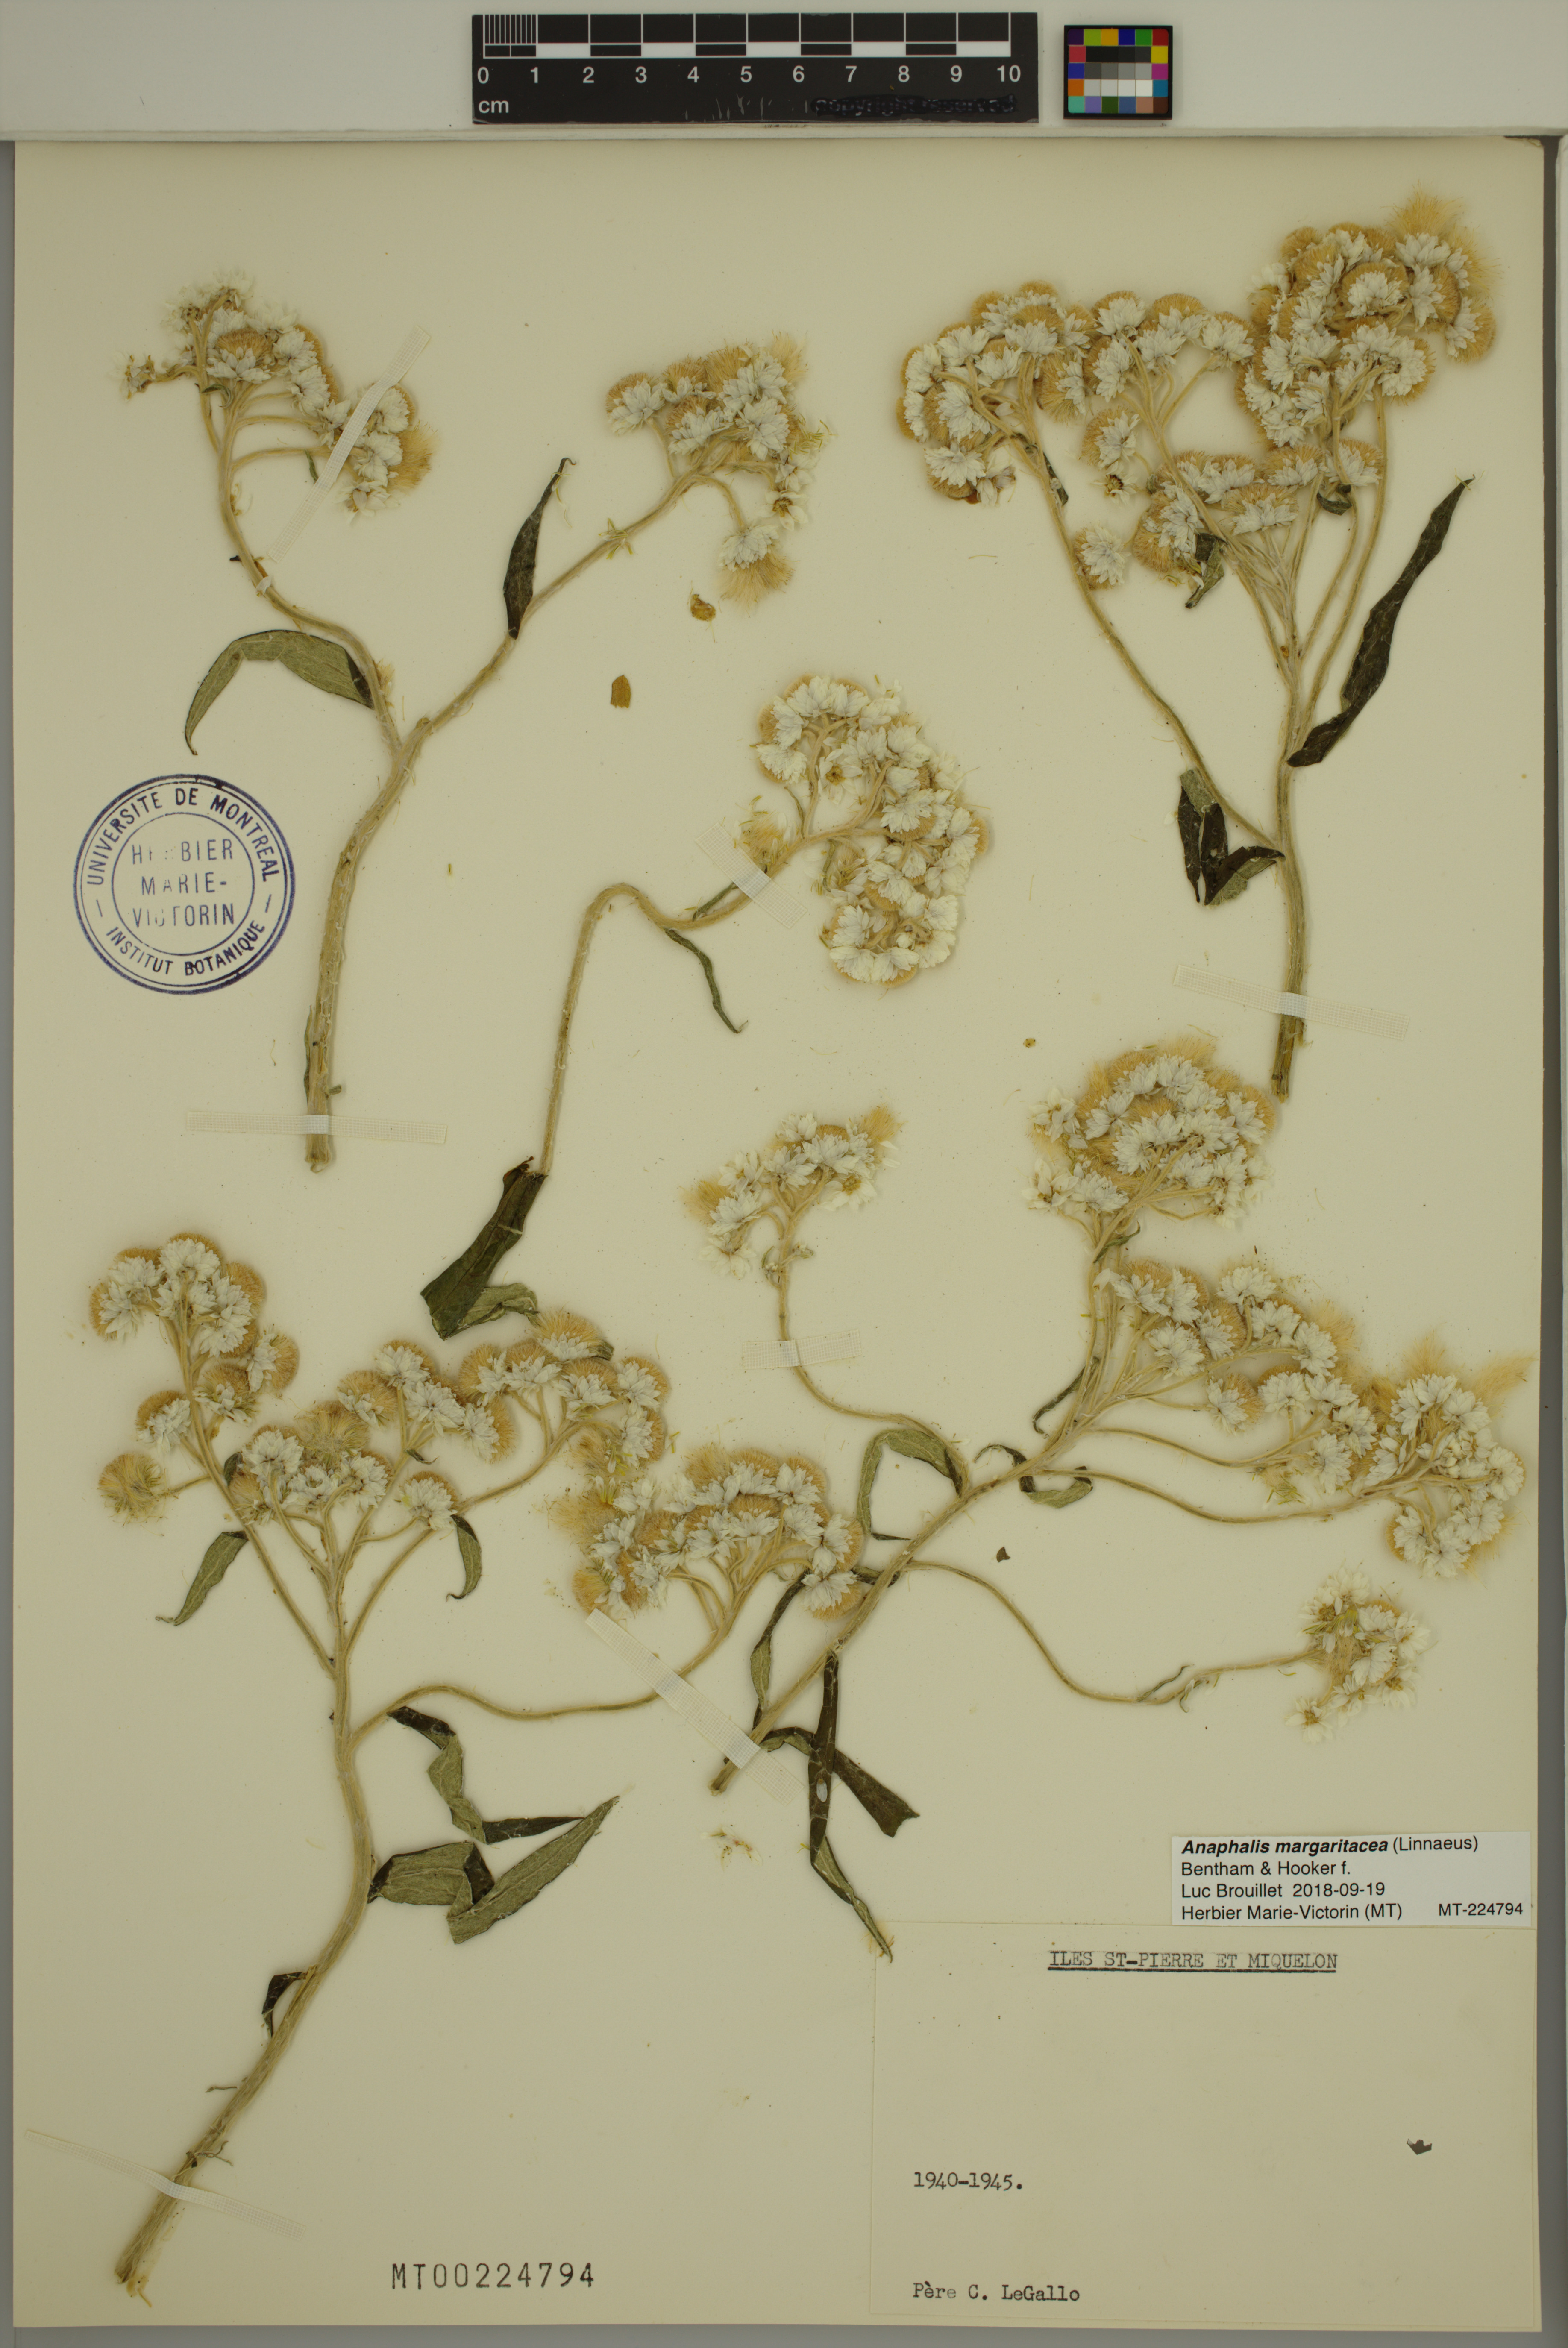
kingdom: Plantae
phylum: Tracheophyta
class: Magnoliopsida
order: Asterales
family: Asteraceae
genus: Anaphalis
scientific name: Anaphalis margaritacea
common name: Pearly everlasting
